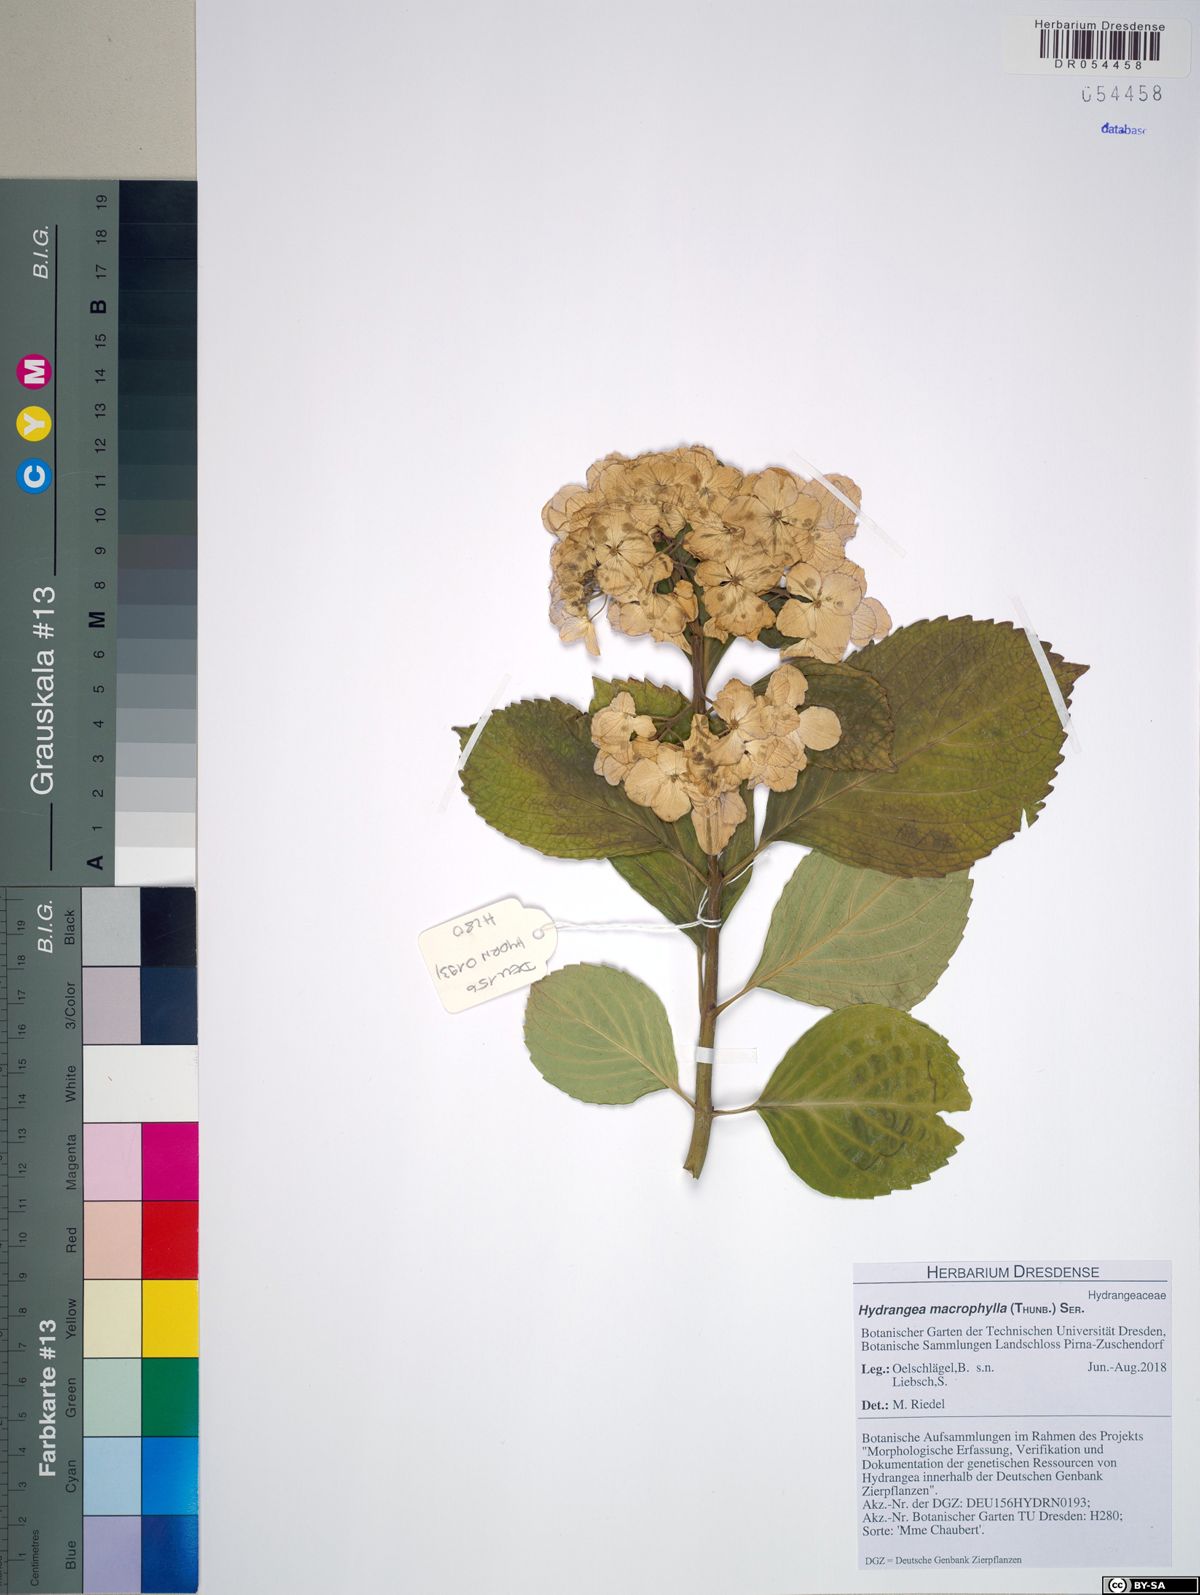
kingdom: Plantae
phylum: Tracheophyta
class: Magnoliopsida
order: Cornales
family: Hydrangeaceae
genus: Hydrangea
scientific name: Hydrangea macrophylla
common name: Hydrangea
